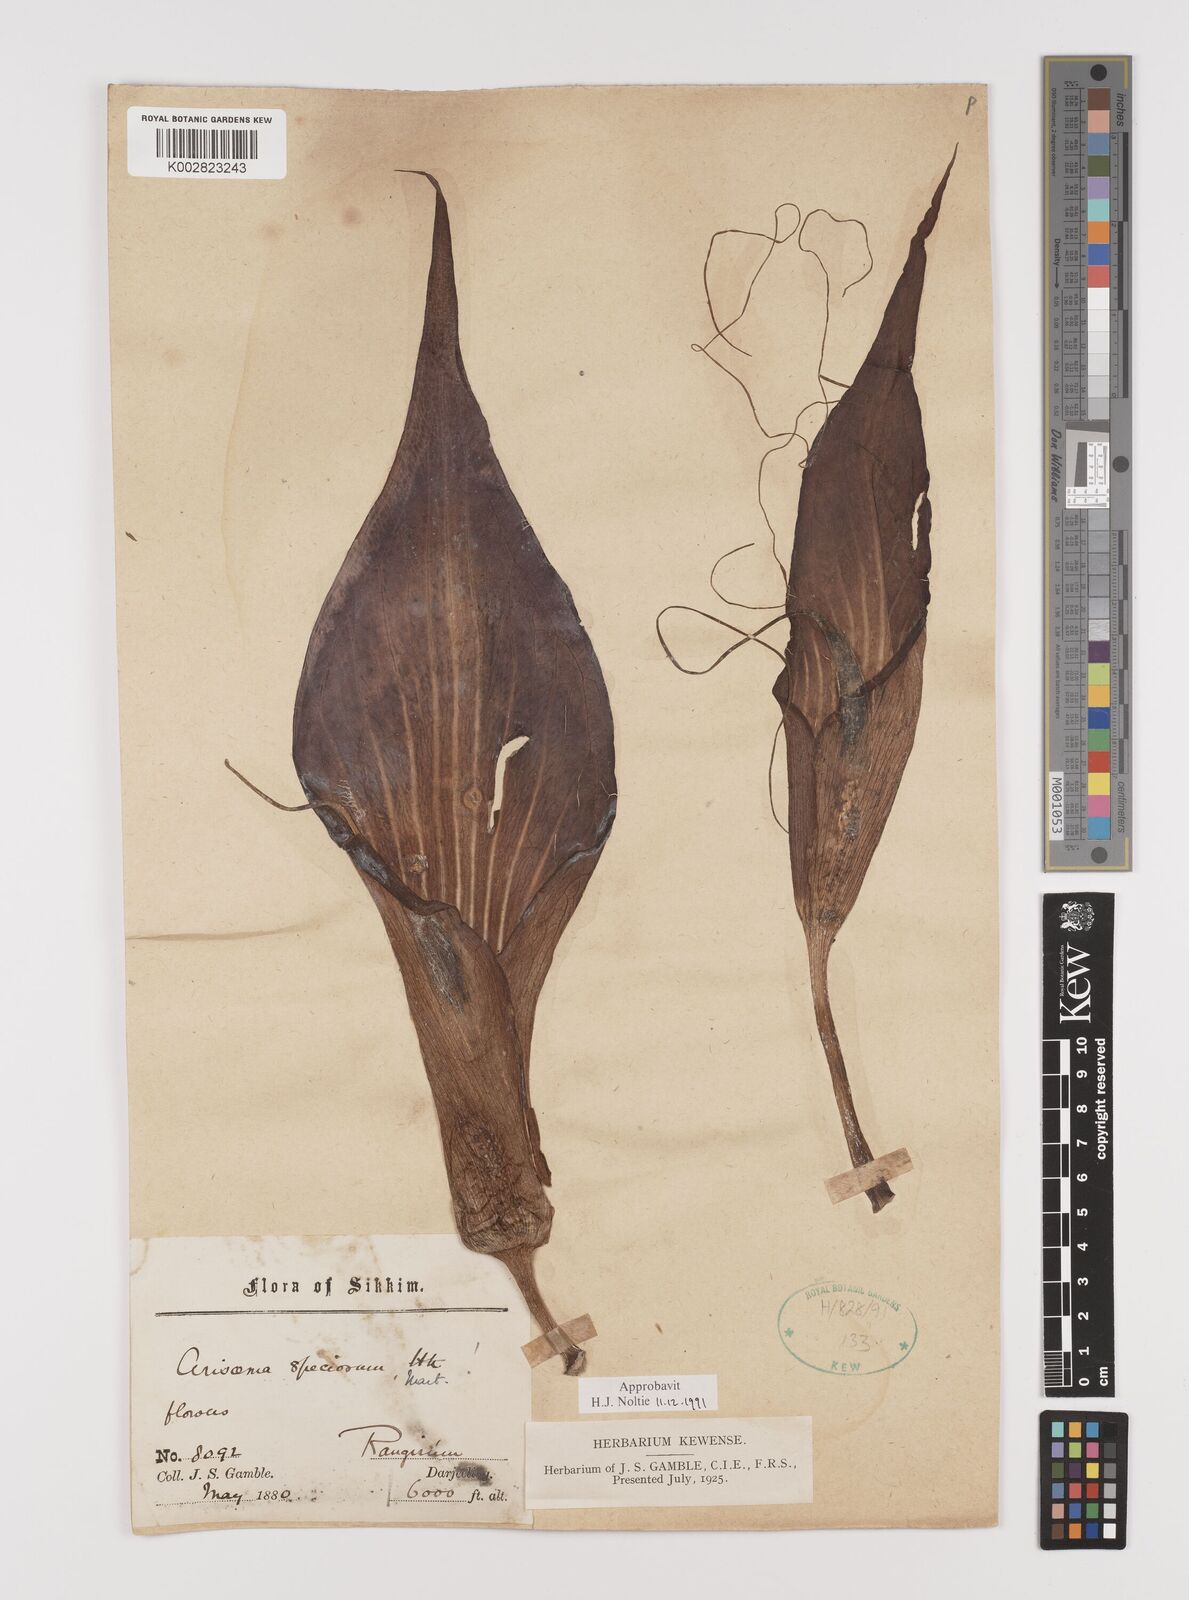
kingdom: Plantae
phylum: Tracheophyta
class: Liliopsida
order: Alismatales
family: Araceae
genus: Arisaema
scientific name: Arisaema speciosum
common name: Showy cobra-lily
